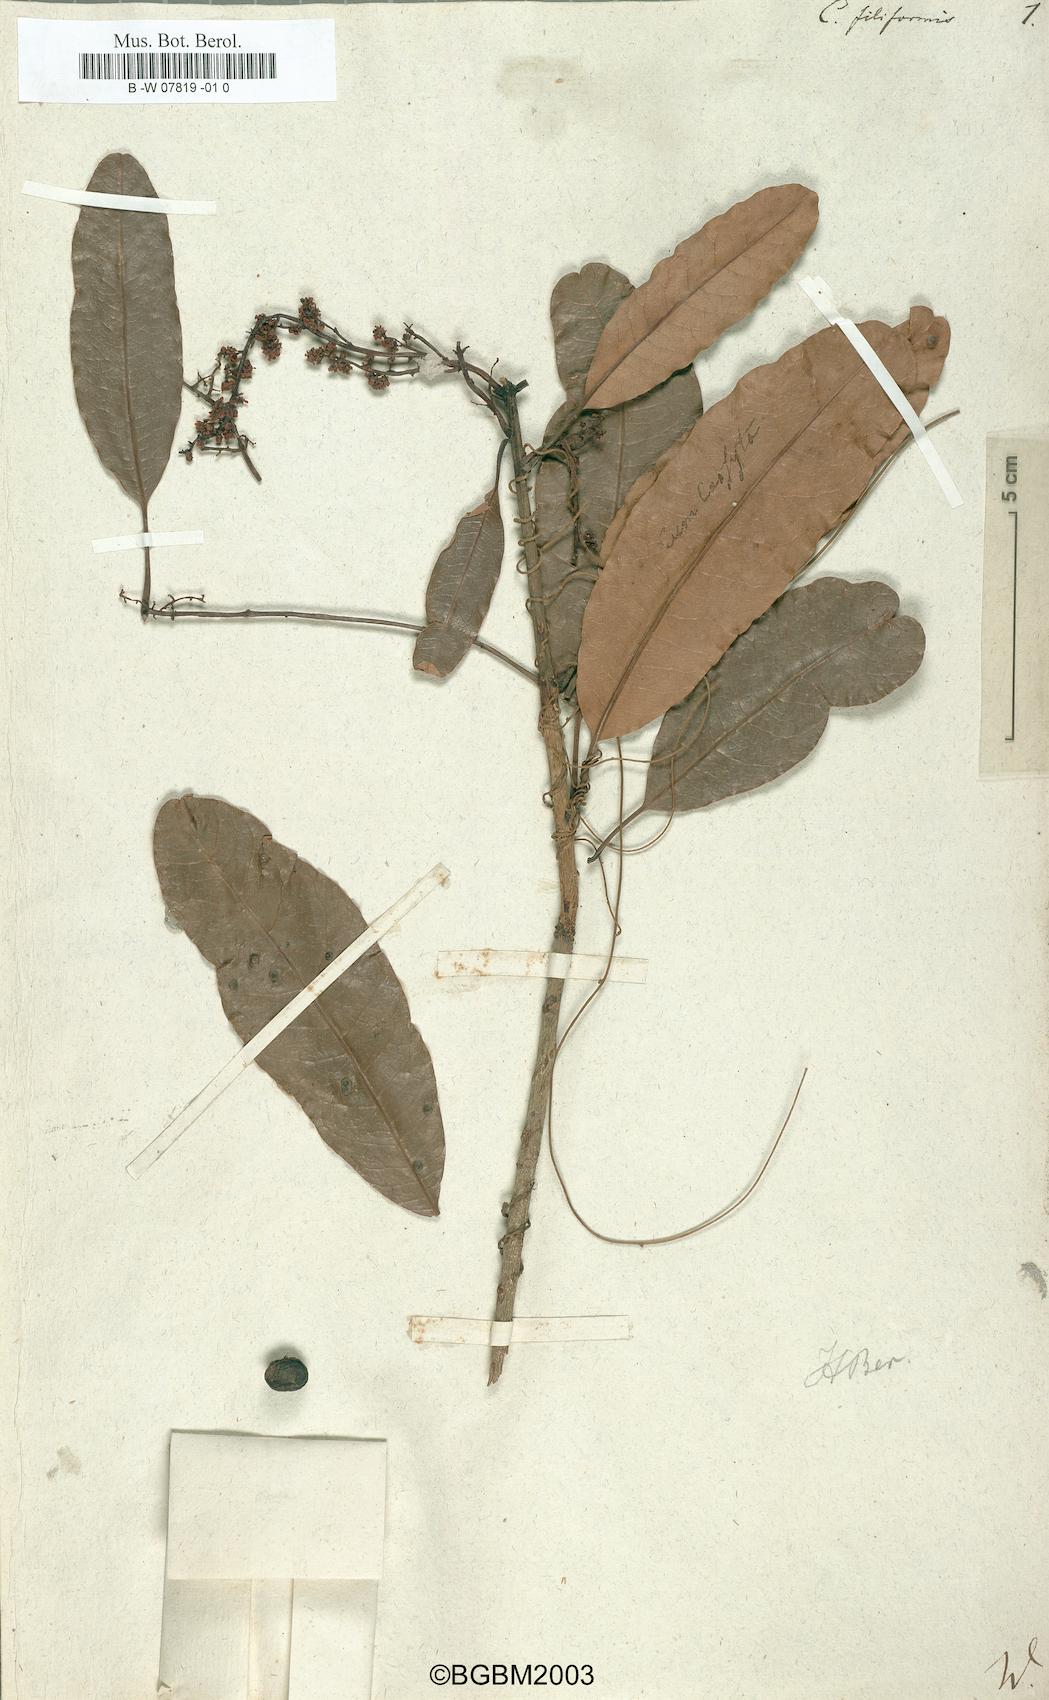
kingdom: Plantae
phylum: Tracheophyta
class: Magnoliopsida
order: Laurales
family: Lauraceae
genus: Cassytha
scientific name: Cassytha filiformis
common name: Dodder-laurel
